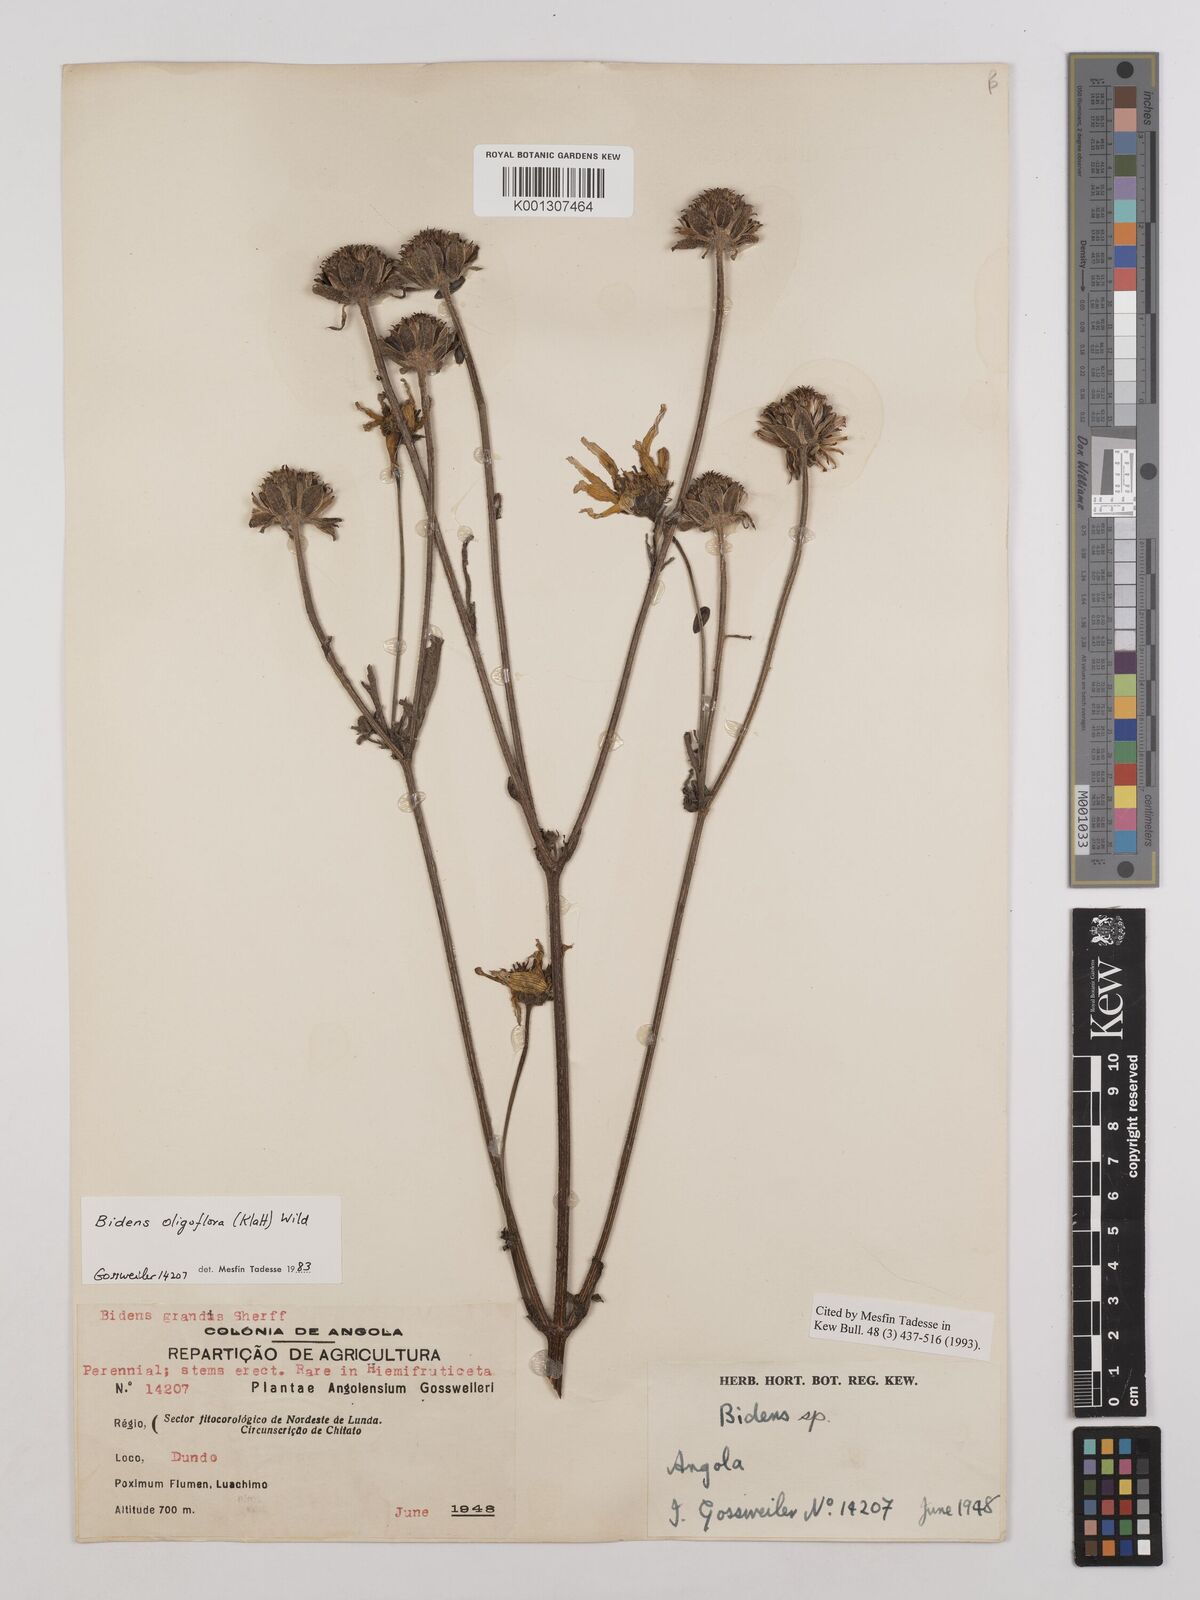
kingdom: Plantae
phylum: Tracheophyta
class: Magnoliopsida
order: Asterales
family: Asteraceae
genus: Bidens
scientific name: Bidens oligoflora
